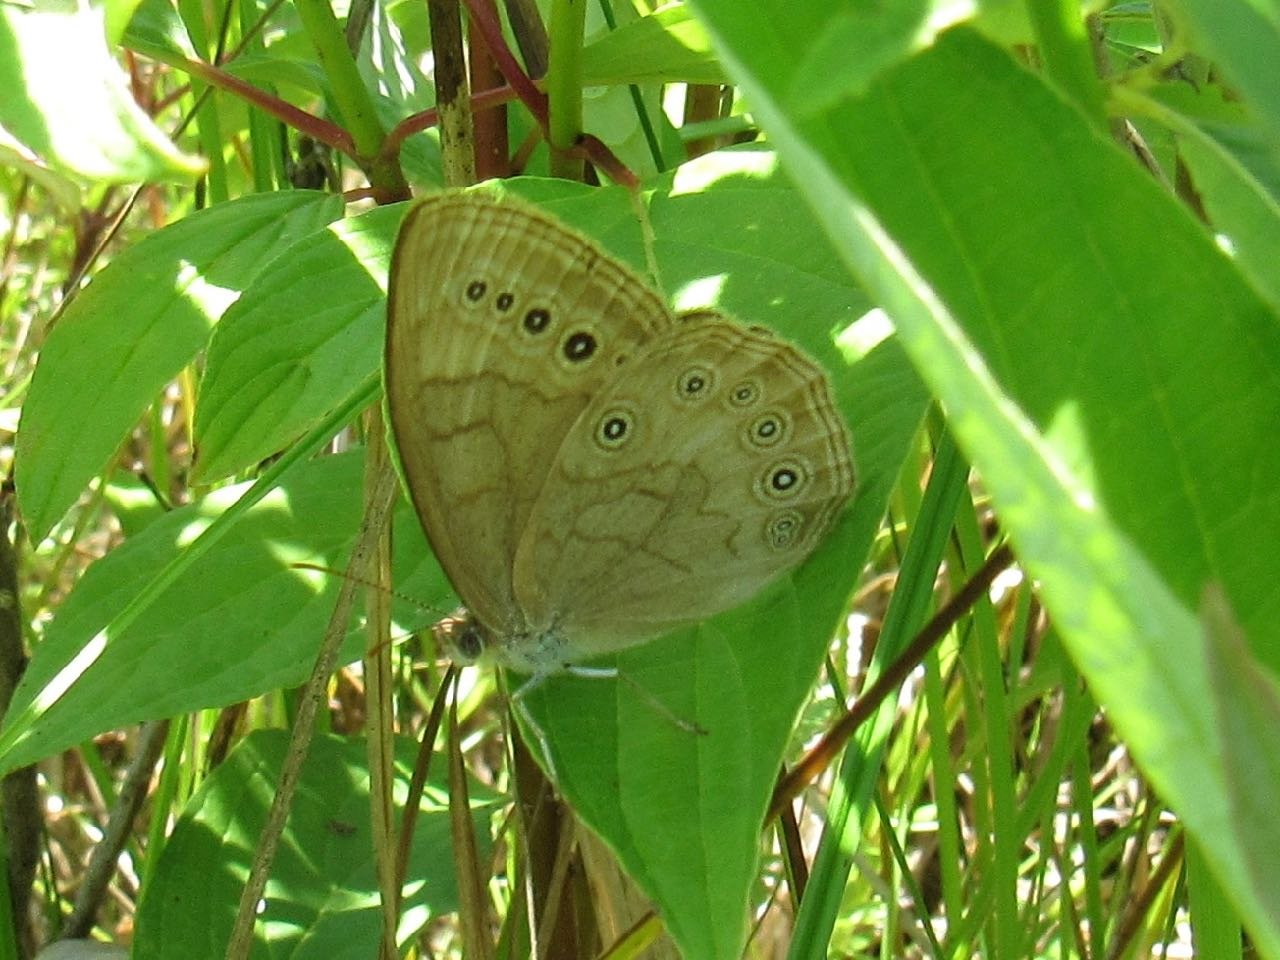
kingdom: Animalia
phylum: Arthropoda
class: Insecta
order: Lepidoptera
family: Nymphalidae
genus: Lethe
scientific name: Lethe eurydice
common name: Eyed Brown
